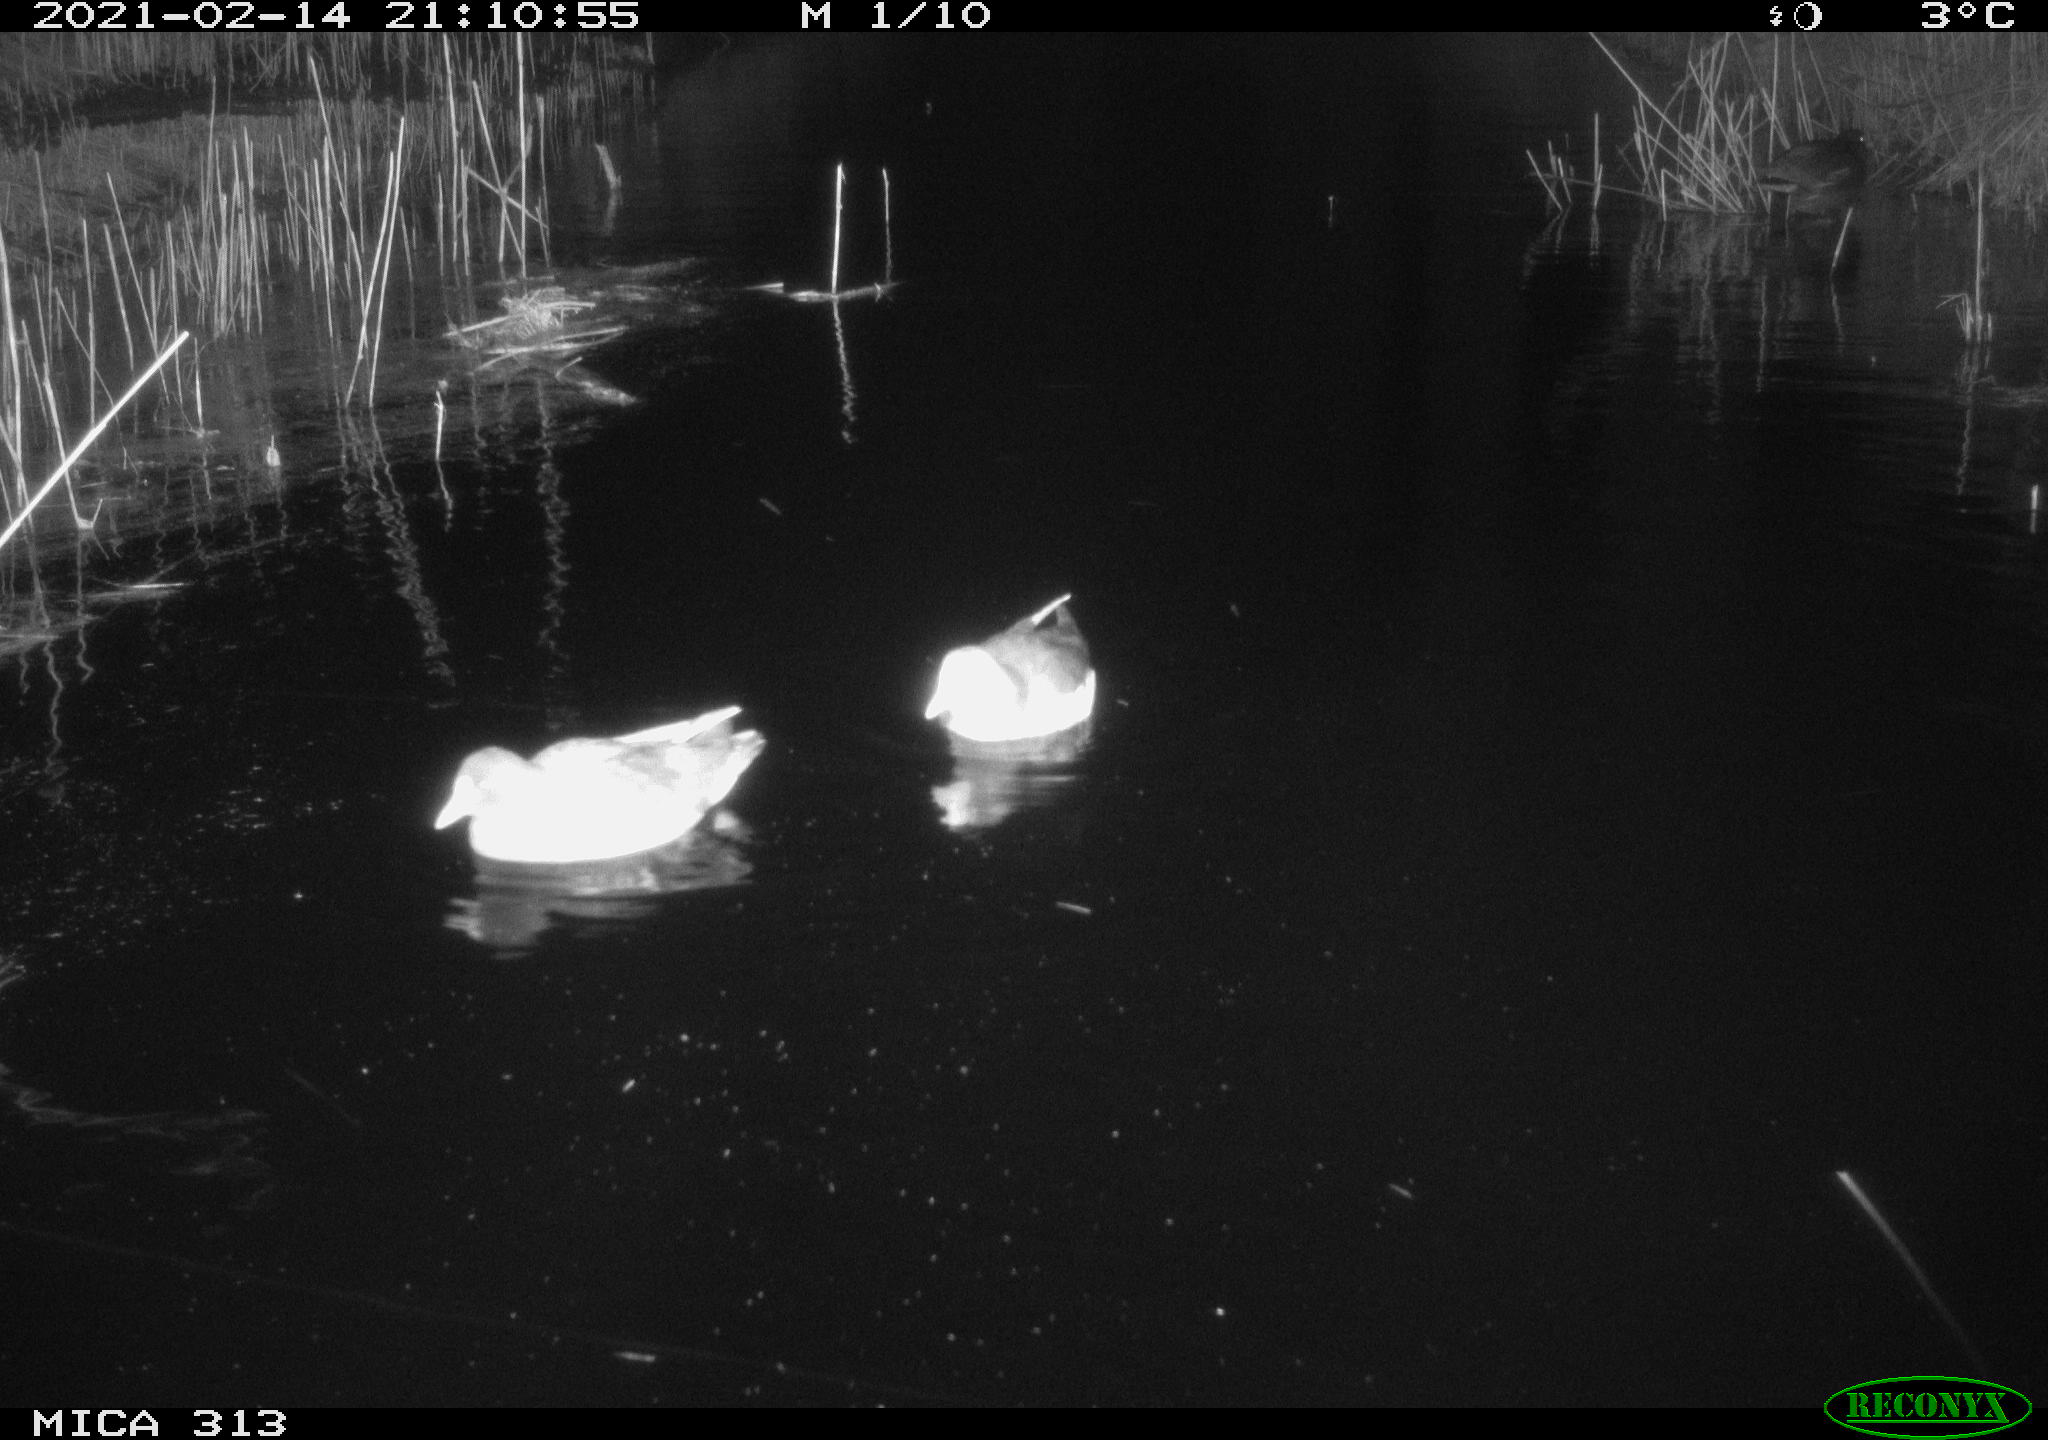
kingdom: Animalia
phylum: Chordata
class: Aves
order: Gruiformes
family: Rallidae
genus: Gallinula
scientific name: Gallinula chloropus
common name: Common moorhen
